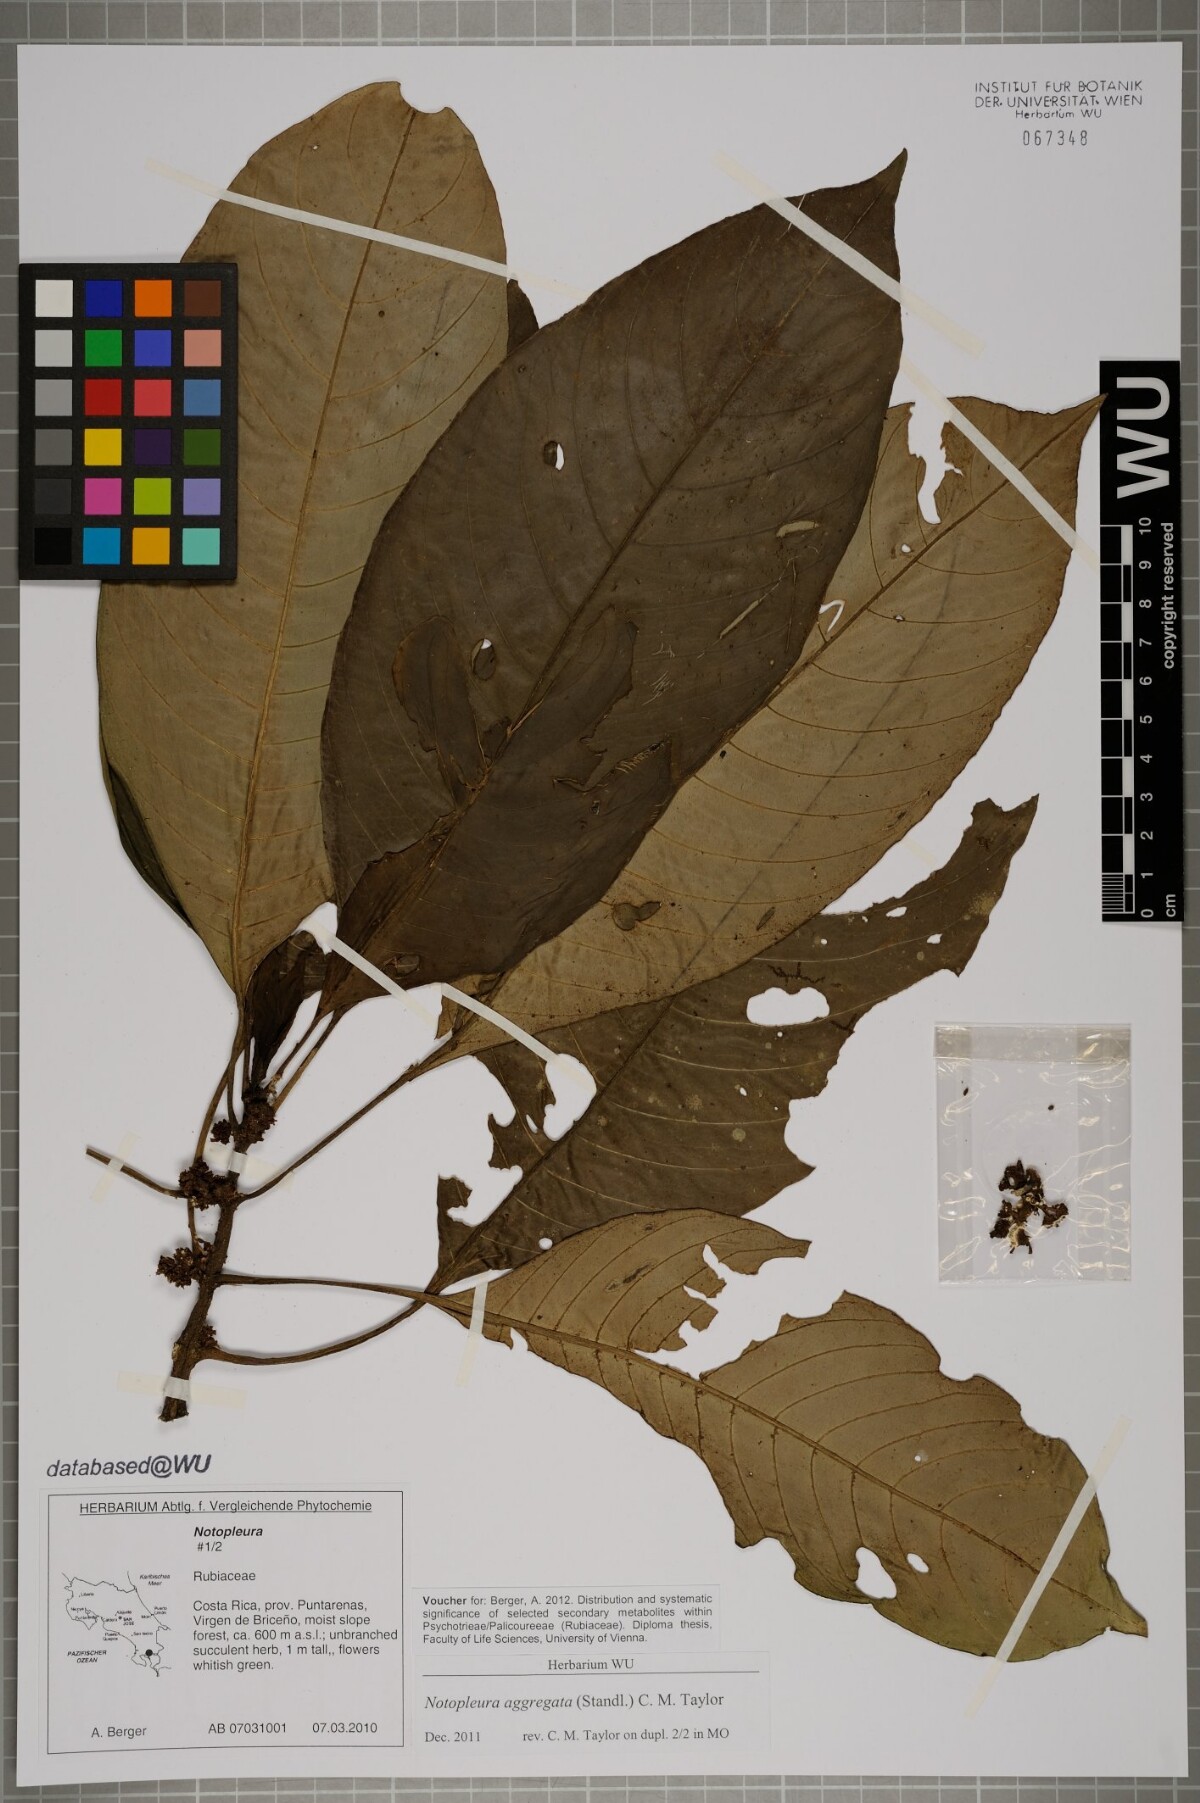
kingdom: Plantae
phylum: Tracheophyta
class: Magnoliopsida
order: Gentianales
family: Rubiaceae
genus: Notopleura
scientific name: Notopleura aggregata
